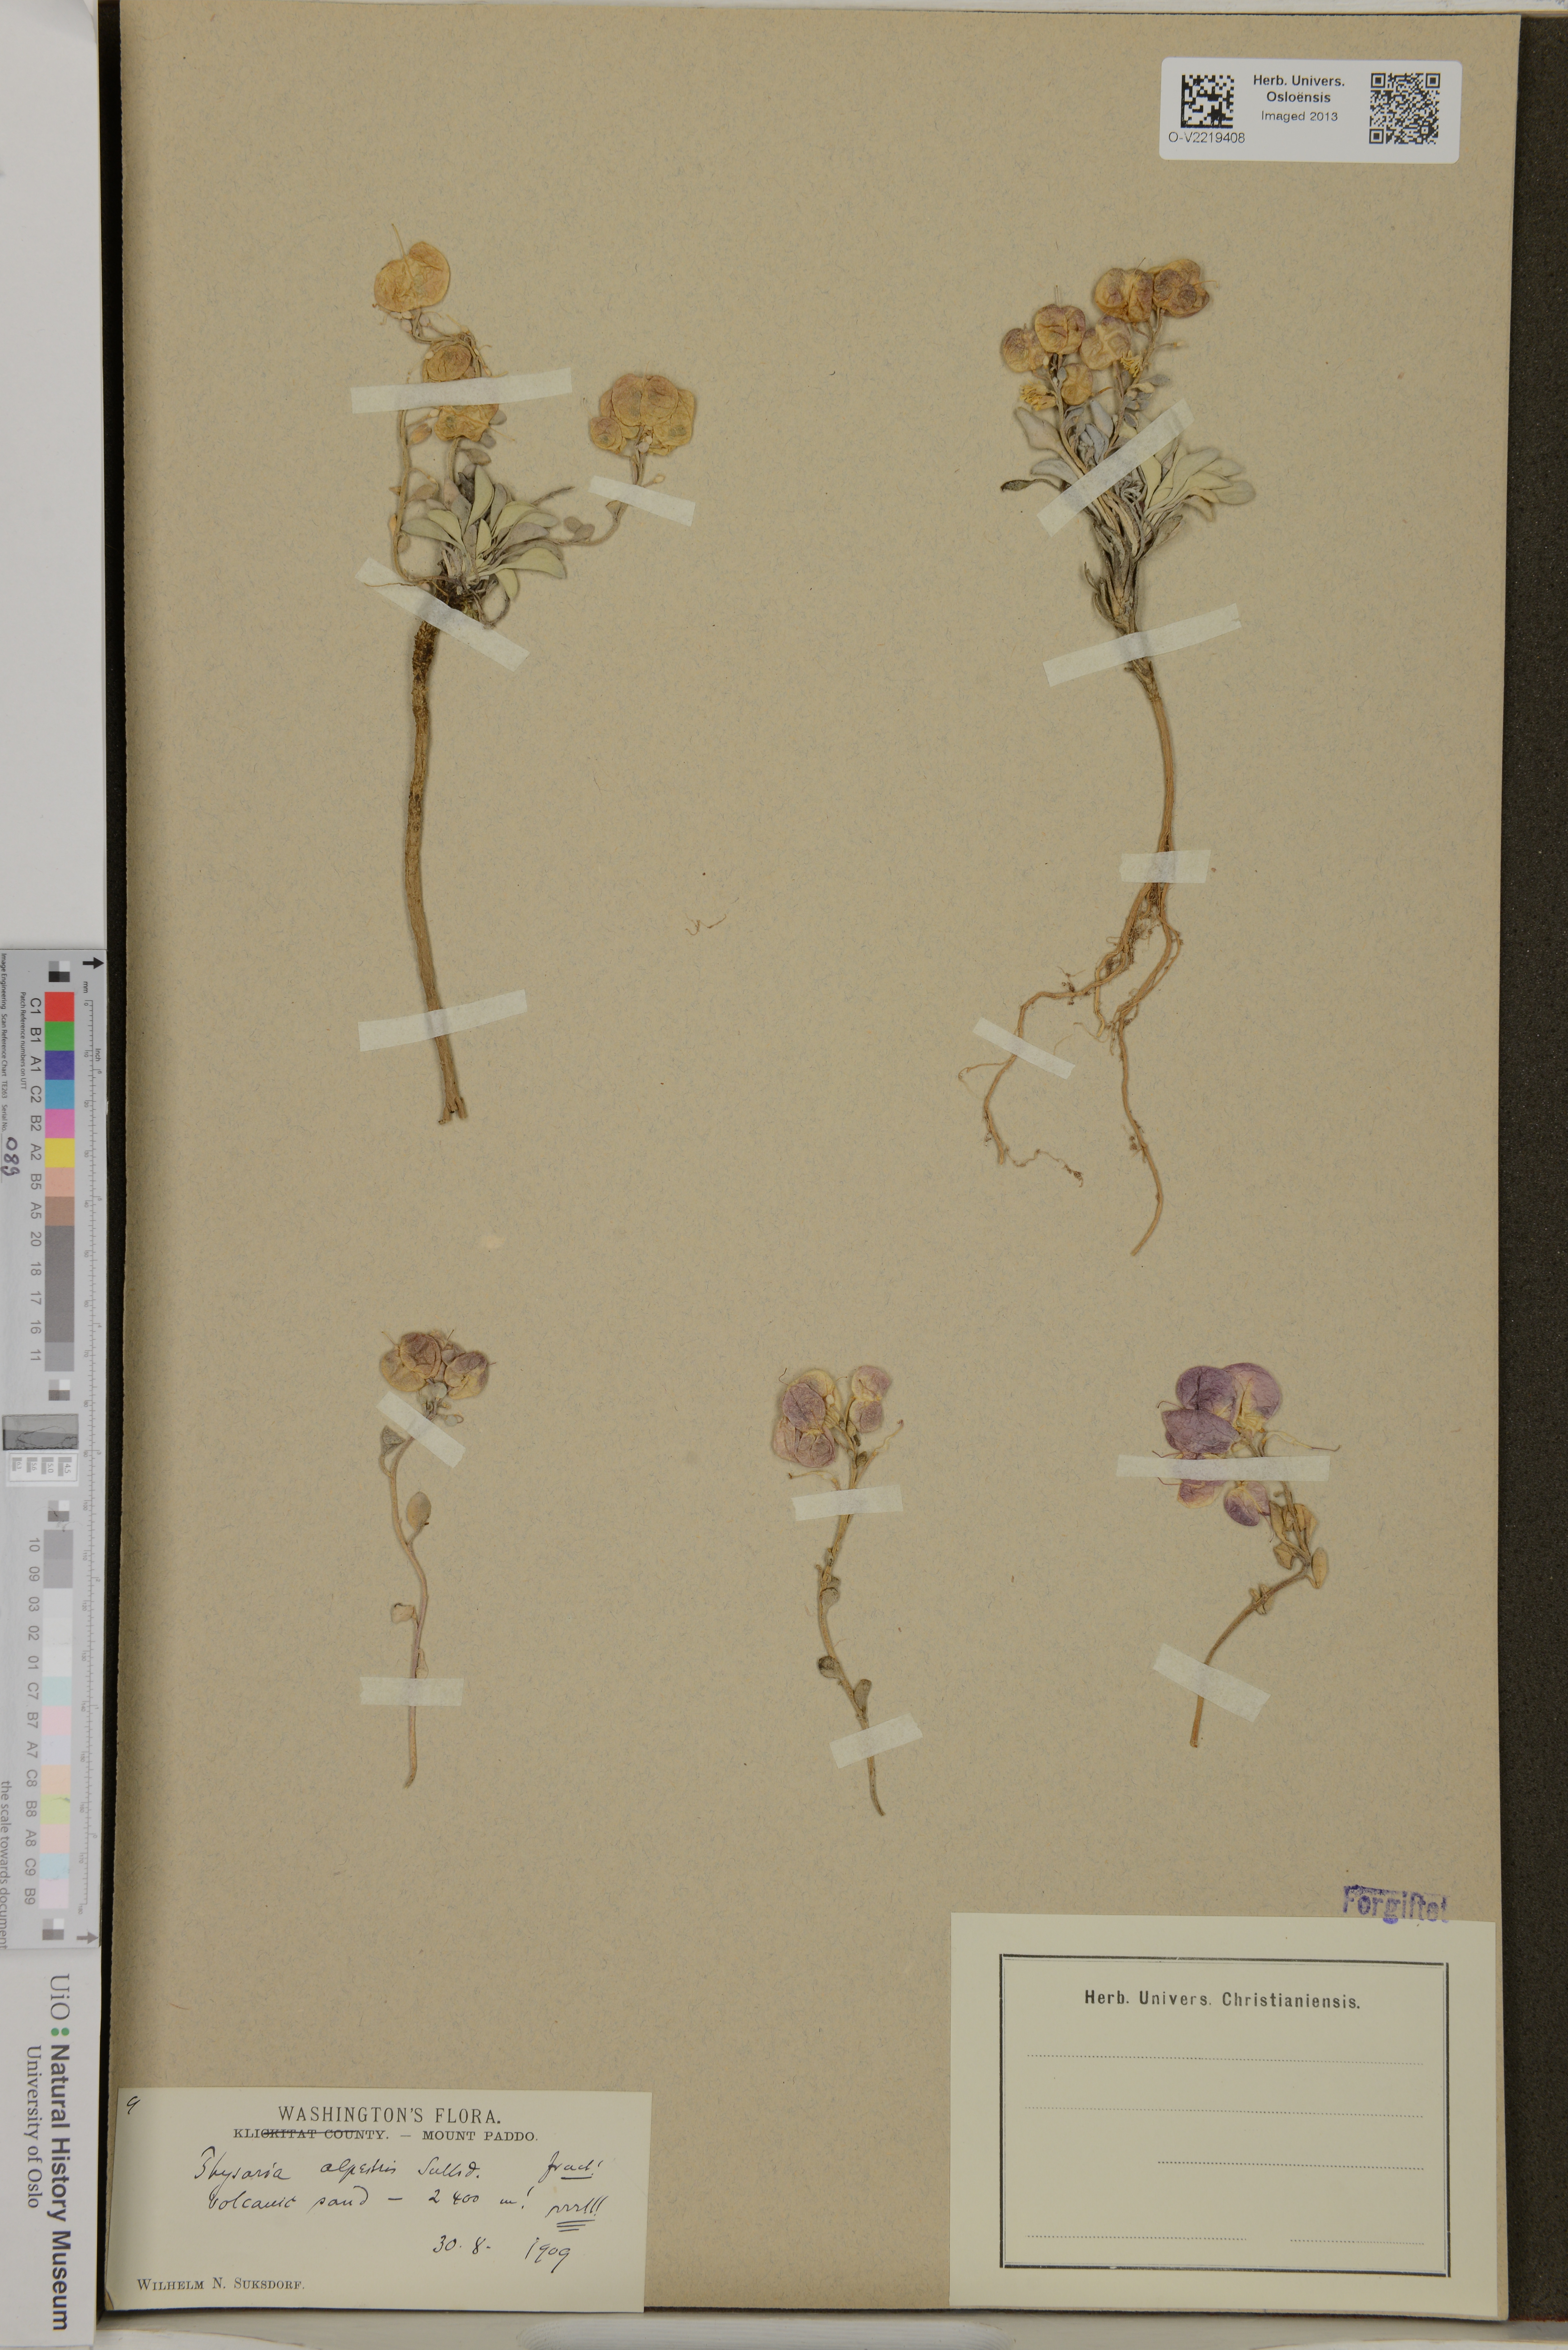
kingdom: Plantae
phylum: Tracheophyta
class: Magnoliopsida
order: Brassicales
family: Brassicaceae
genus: Physaria
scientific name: Physaria alpestris
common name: Washington twinpod
